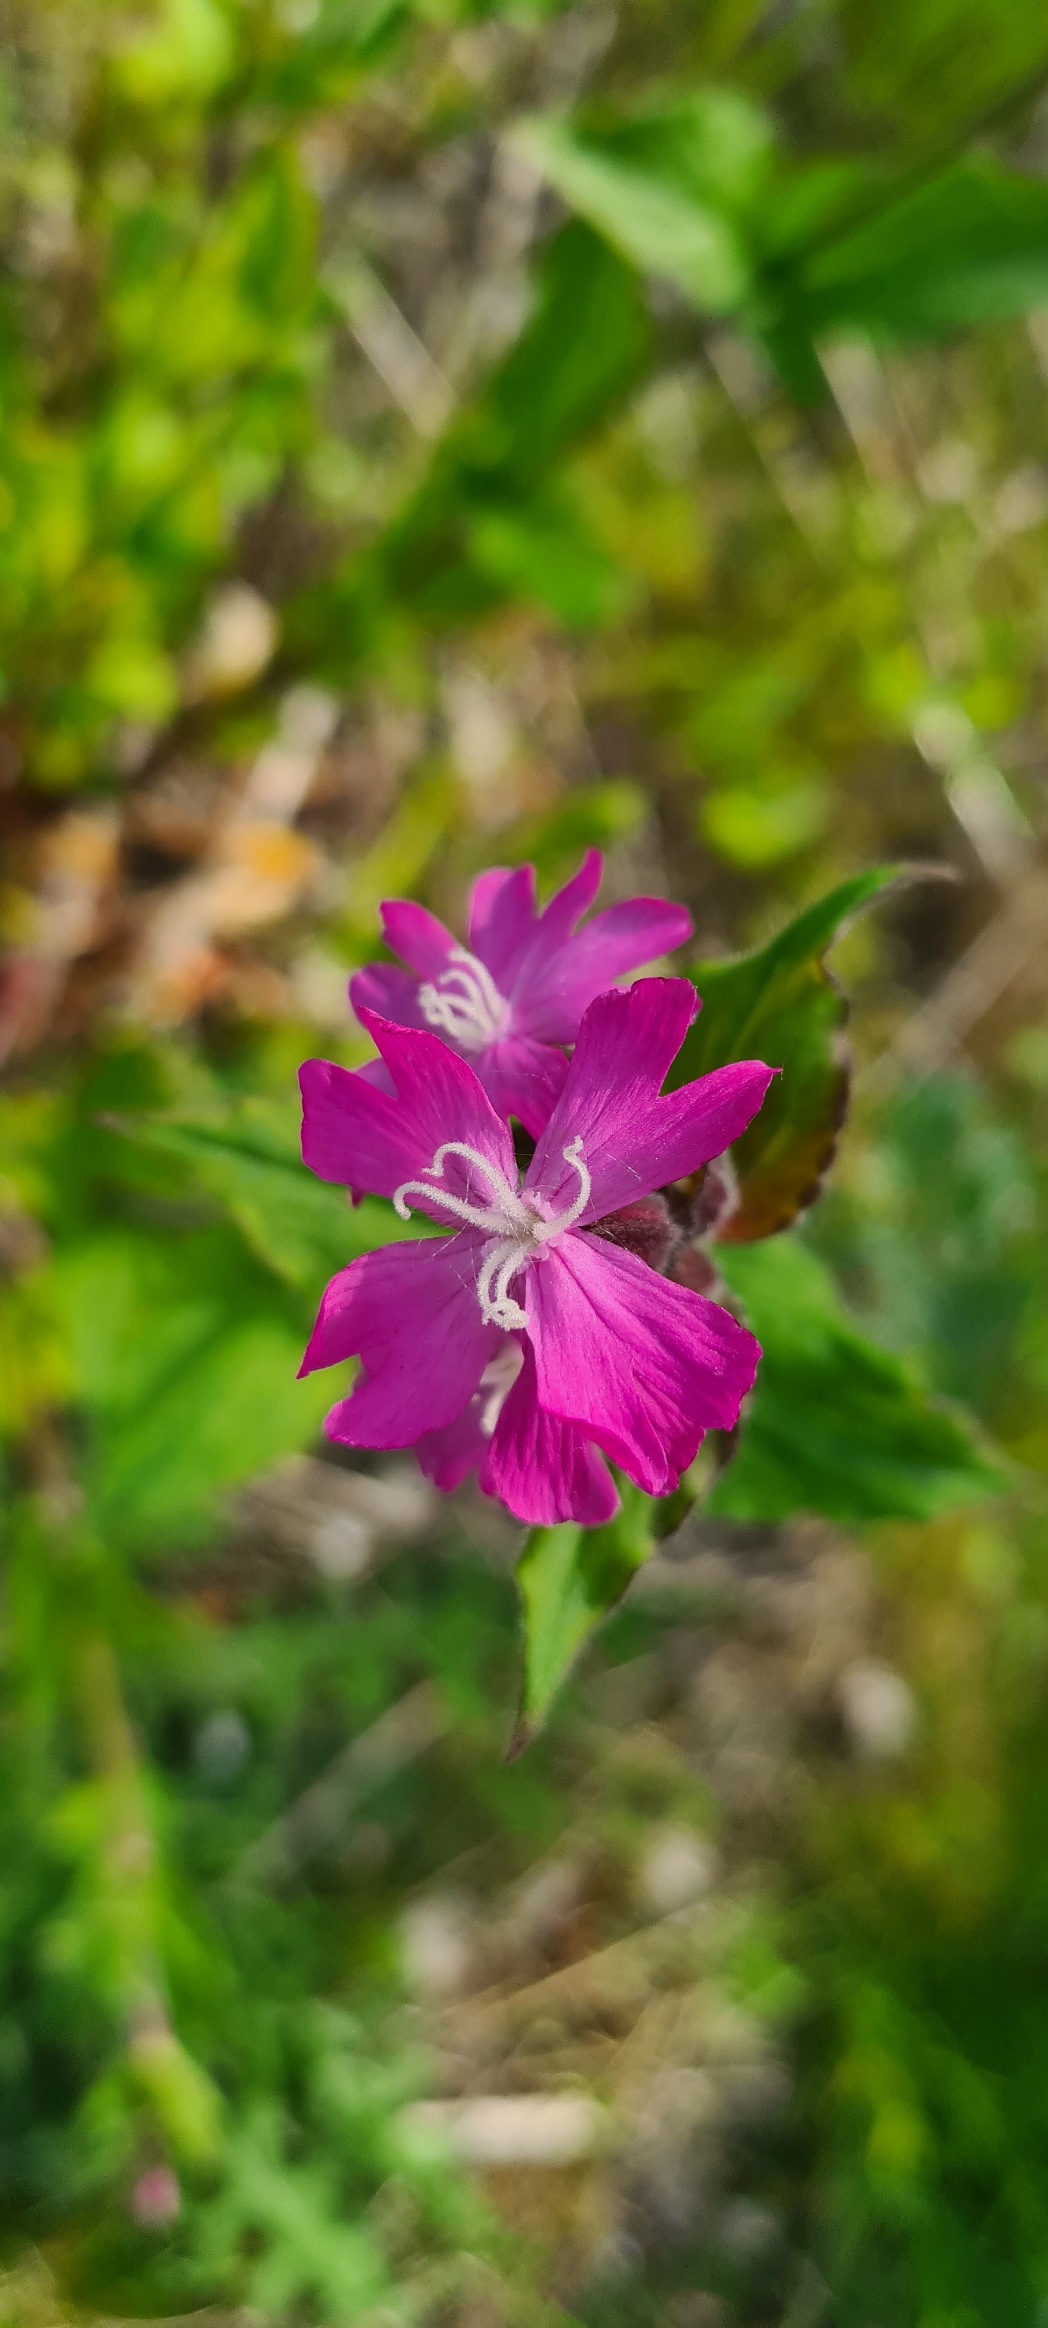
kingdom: Plantae
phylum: Tracheophyta
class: Magnoliopsida
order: Caryophyllales
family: Caryophyllaceae
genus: Silene
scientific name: Silene dioica
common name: Dagpragtstjerne
